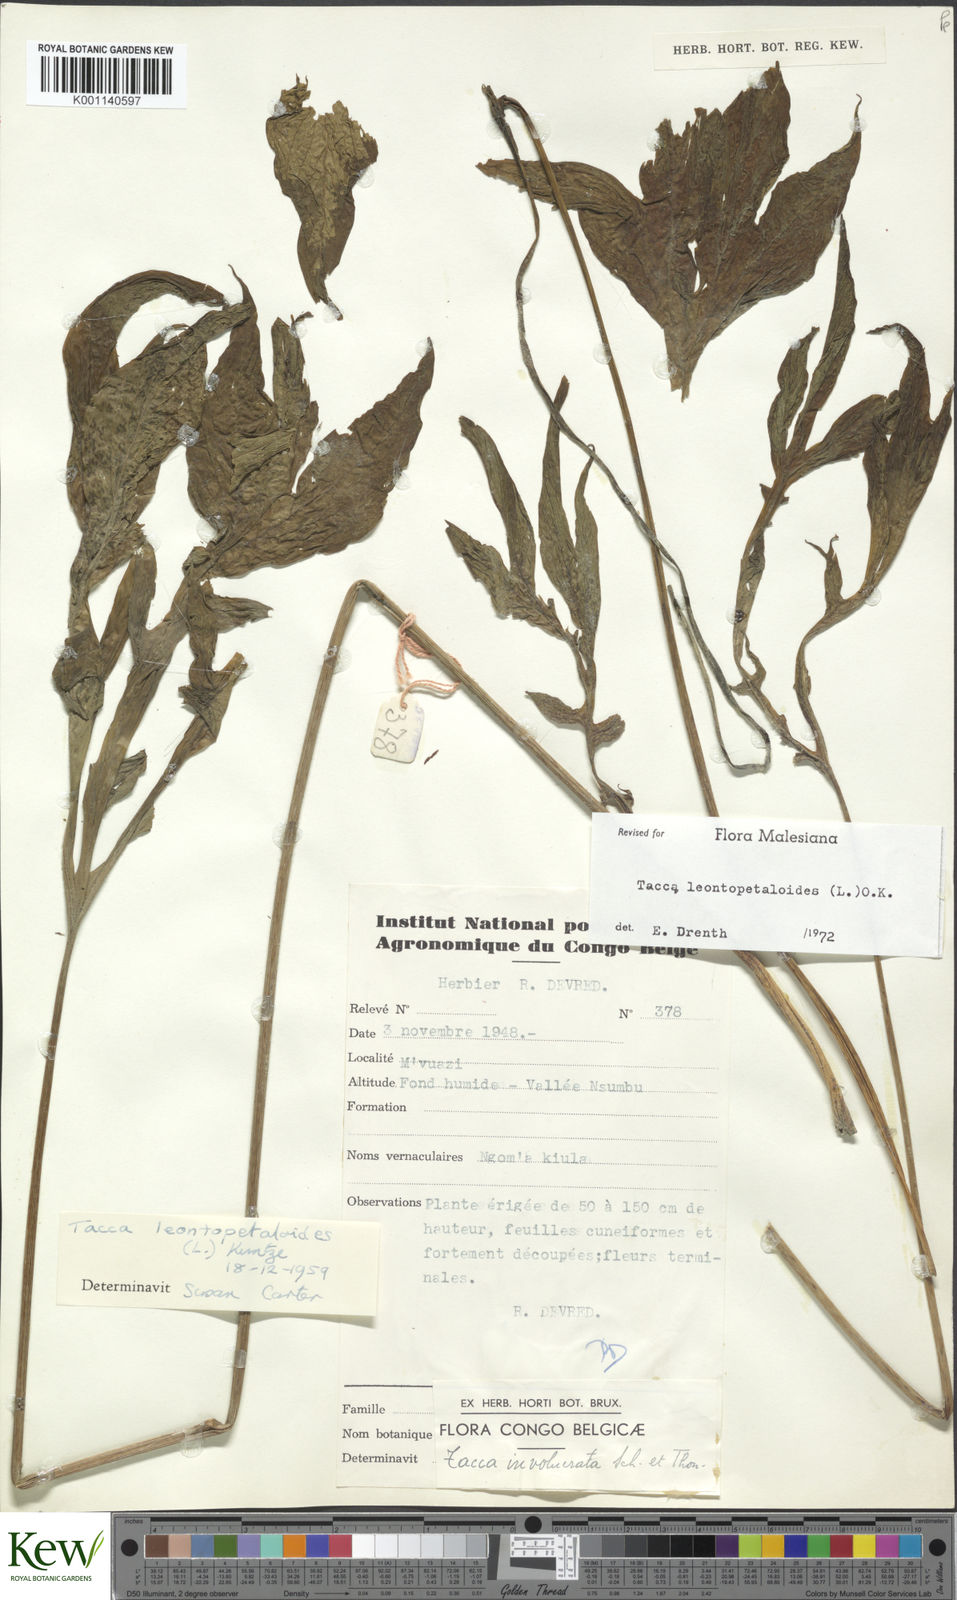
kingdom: Plantae
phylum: Tracheophyta
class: Liliopsida
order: Dioscoreales
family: Dioscoreaceae
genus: Tacca
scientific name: Tacca leontopetaloides
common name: Arrowroot
